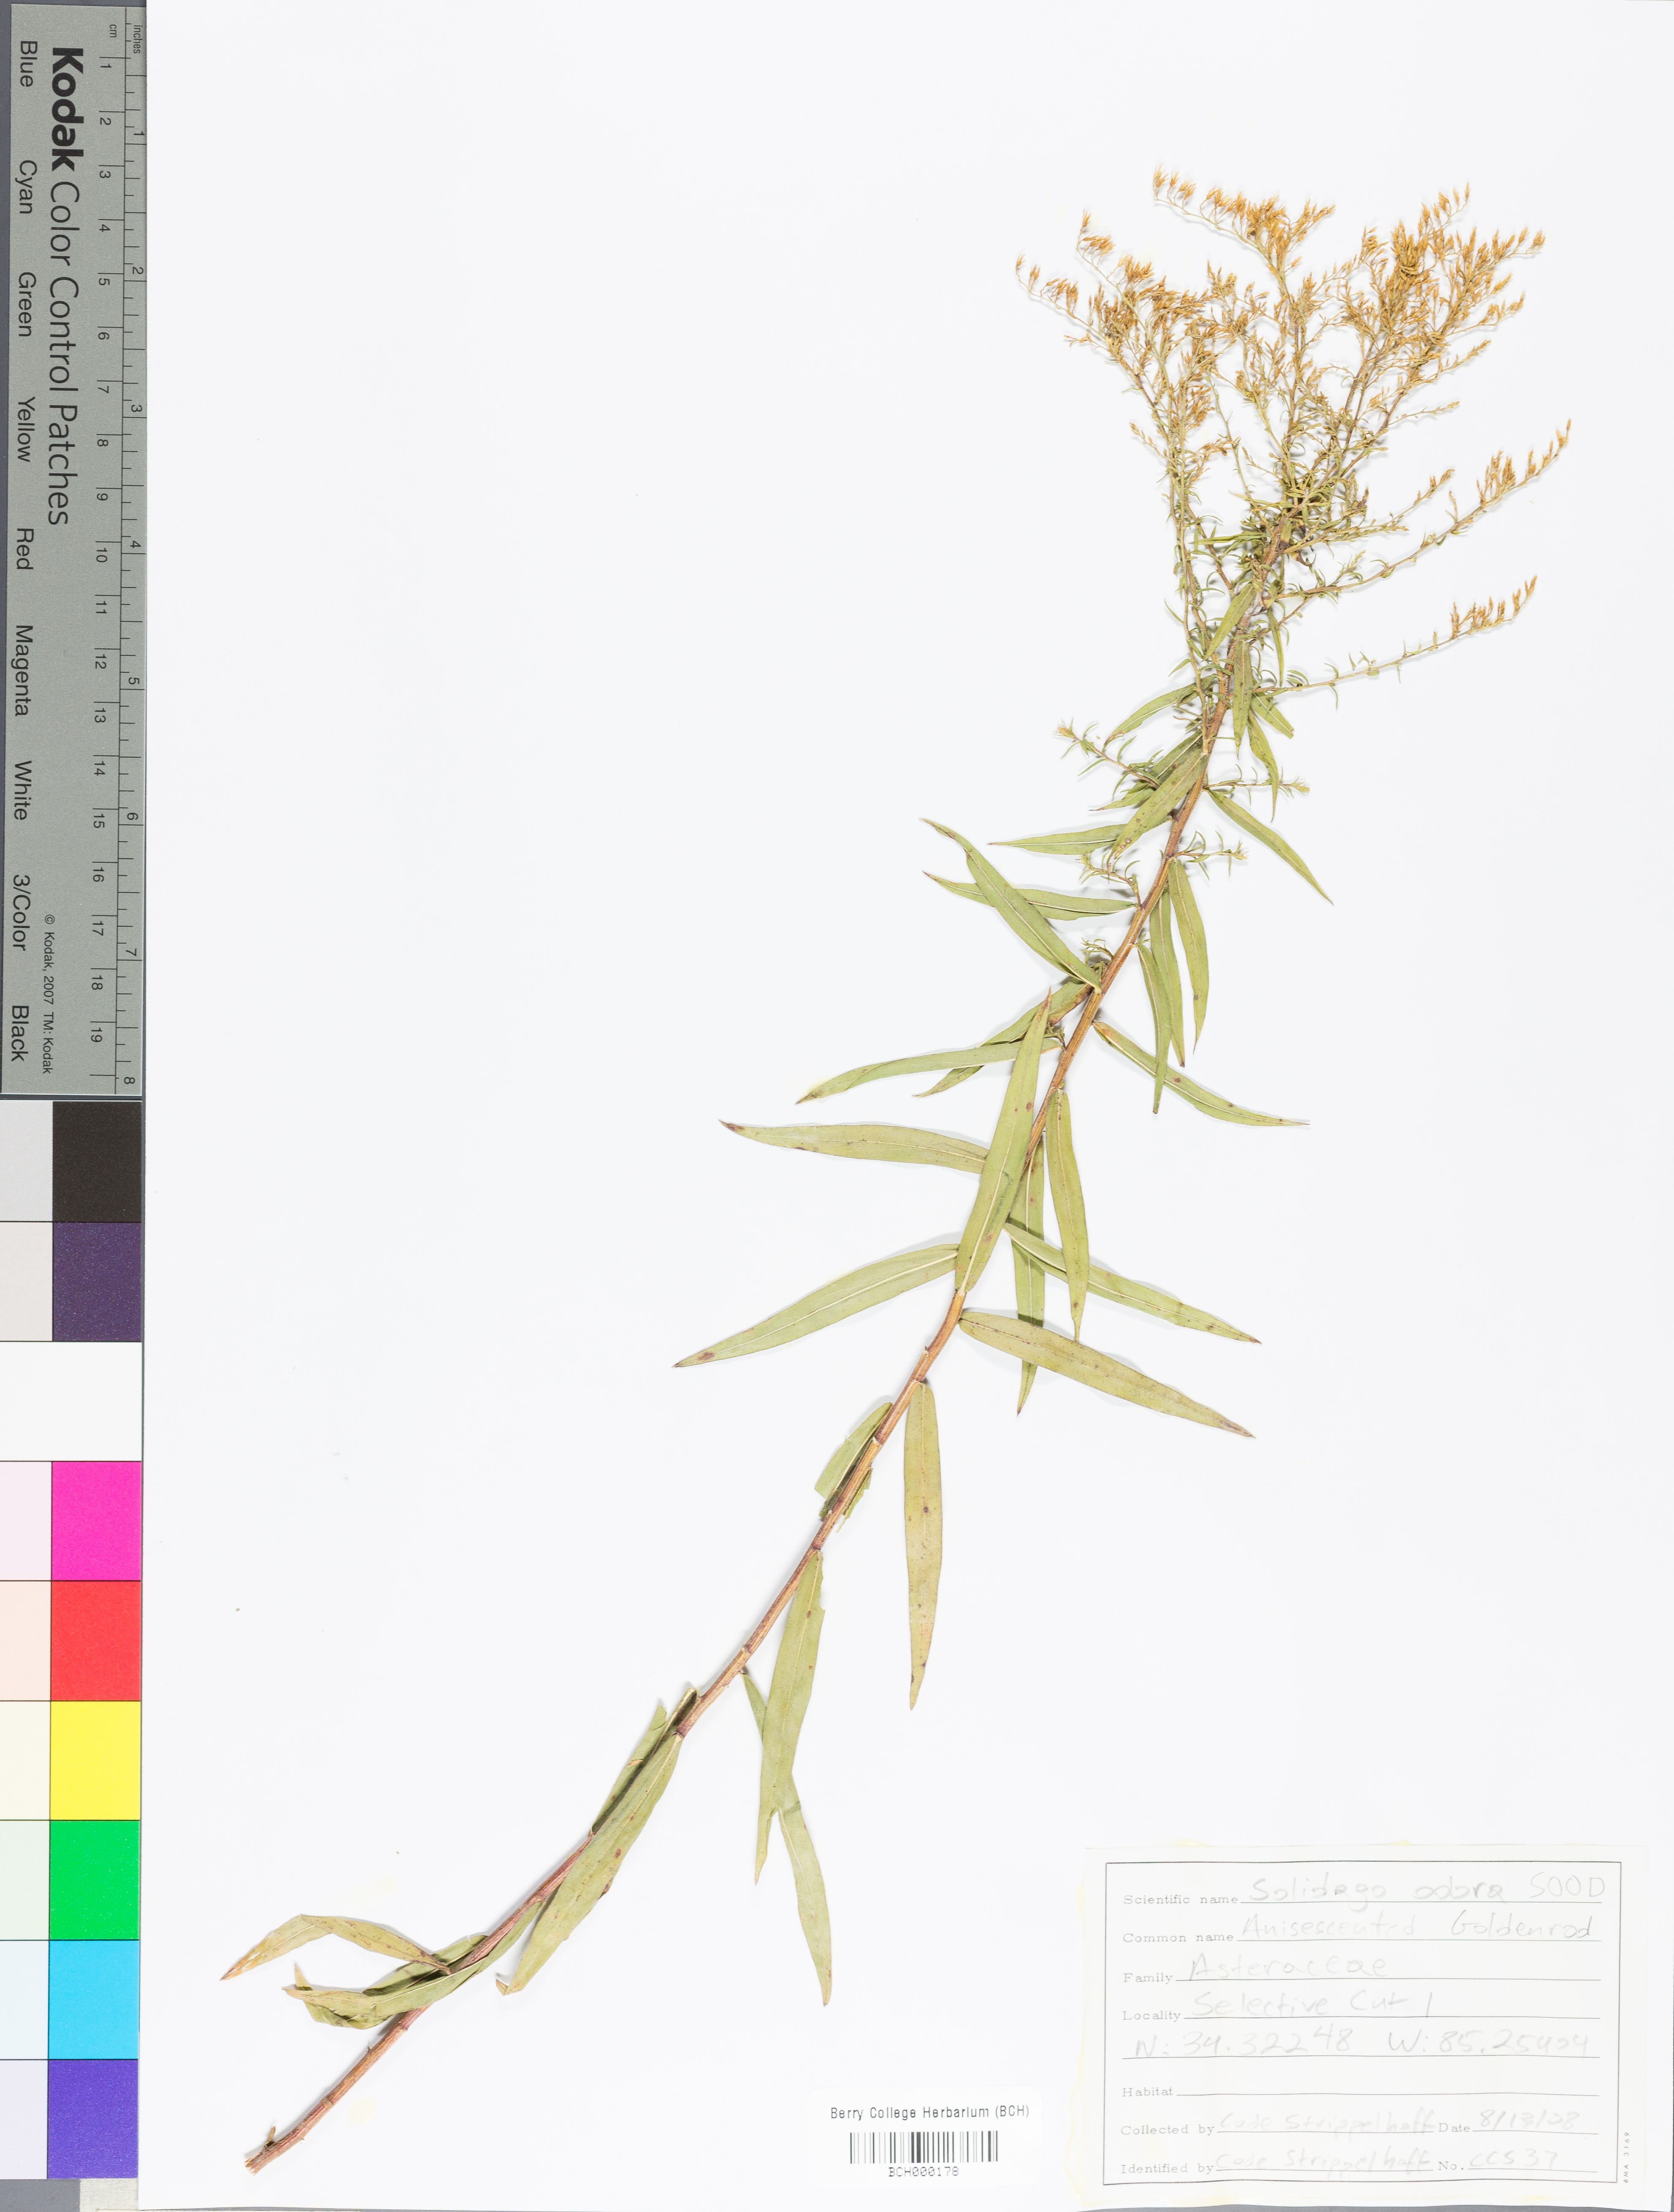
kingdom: Plantae
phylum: Tracheophyta
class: Magnoliopsida
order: Asterales
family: Asteraceae
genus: Solidago
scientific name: Solidago odora
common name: Anise-scented goldenrod
